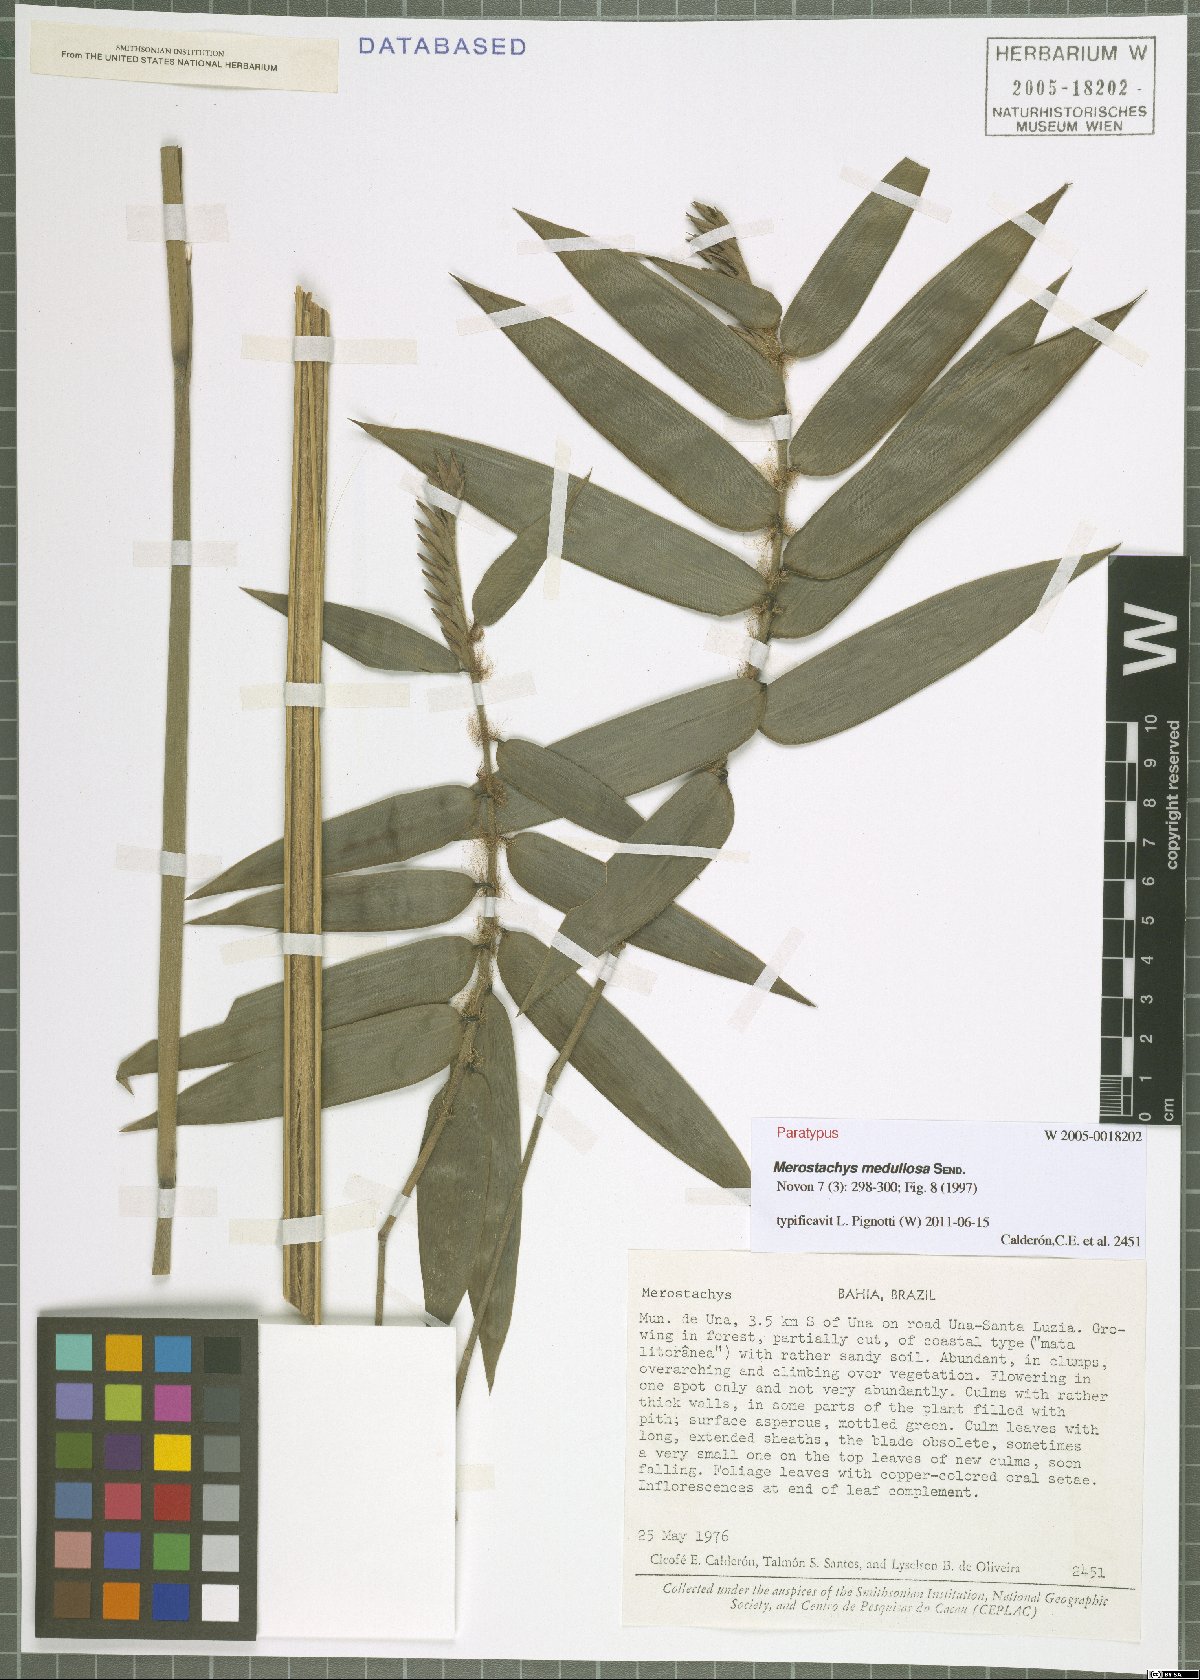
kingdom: Plantae
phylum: Tracheophyta
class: Liliopsida
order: Poales
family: Poaceae
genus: Merostachys
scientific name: Merostachys medullosa
